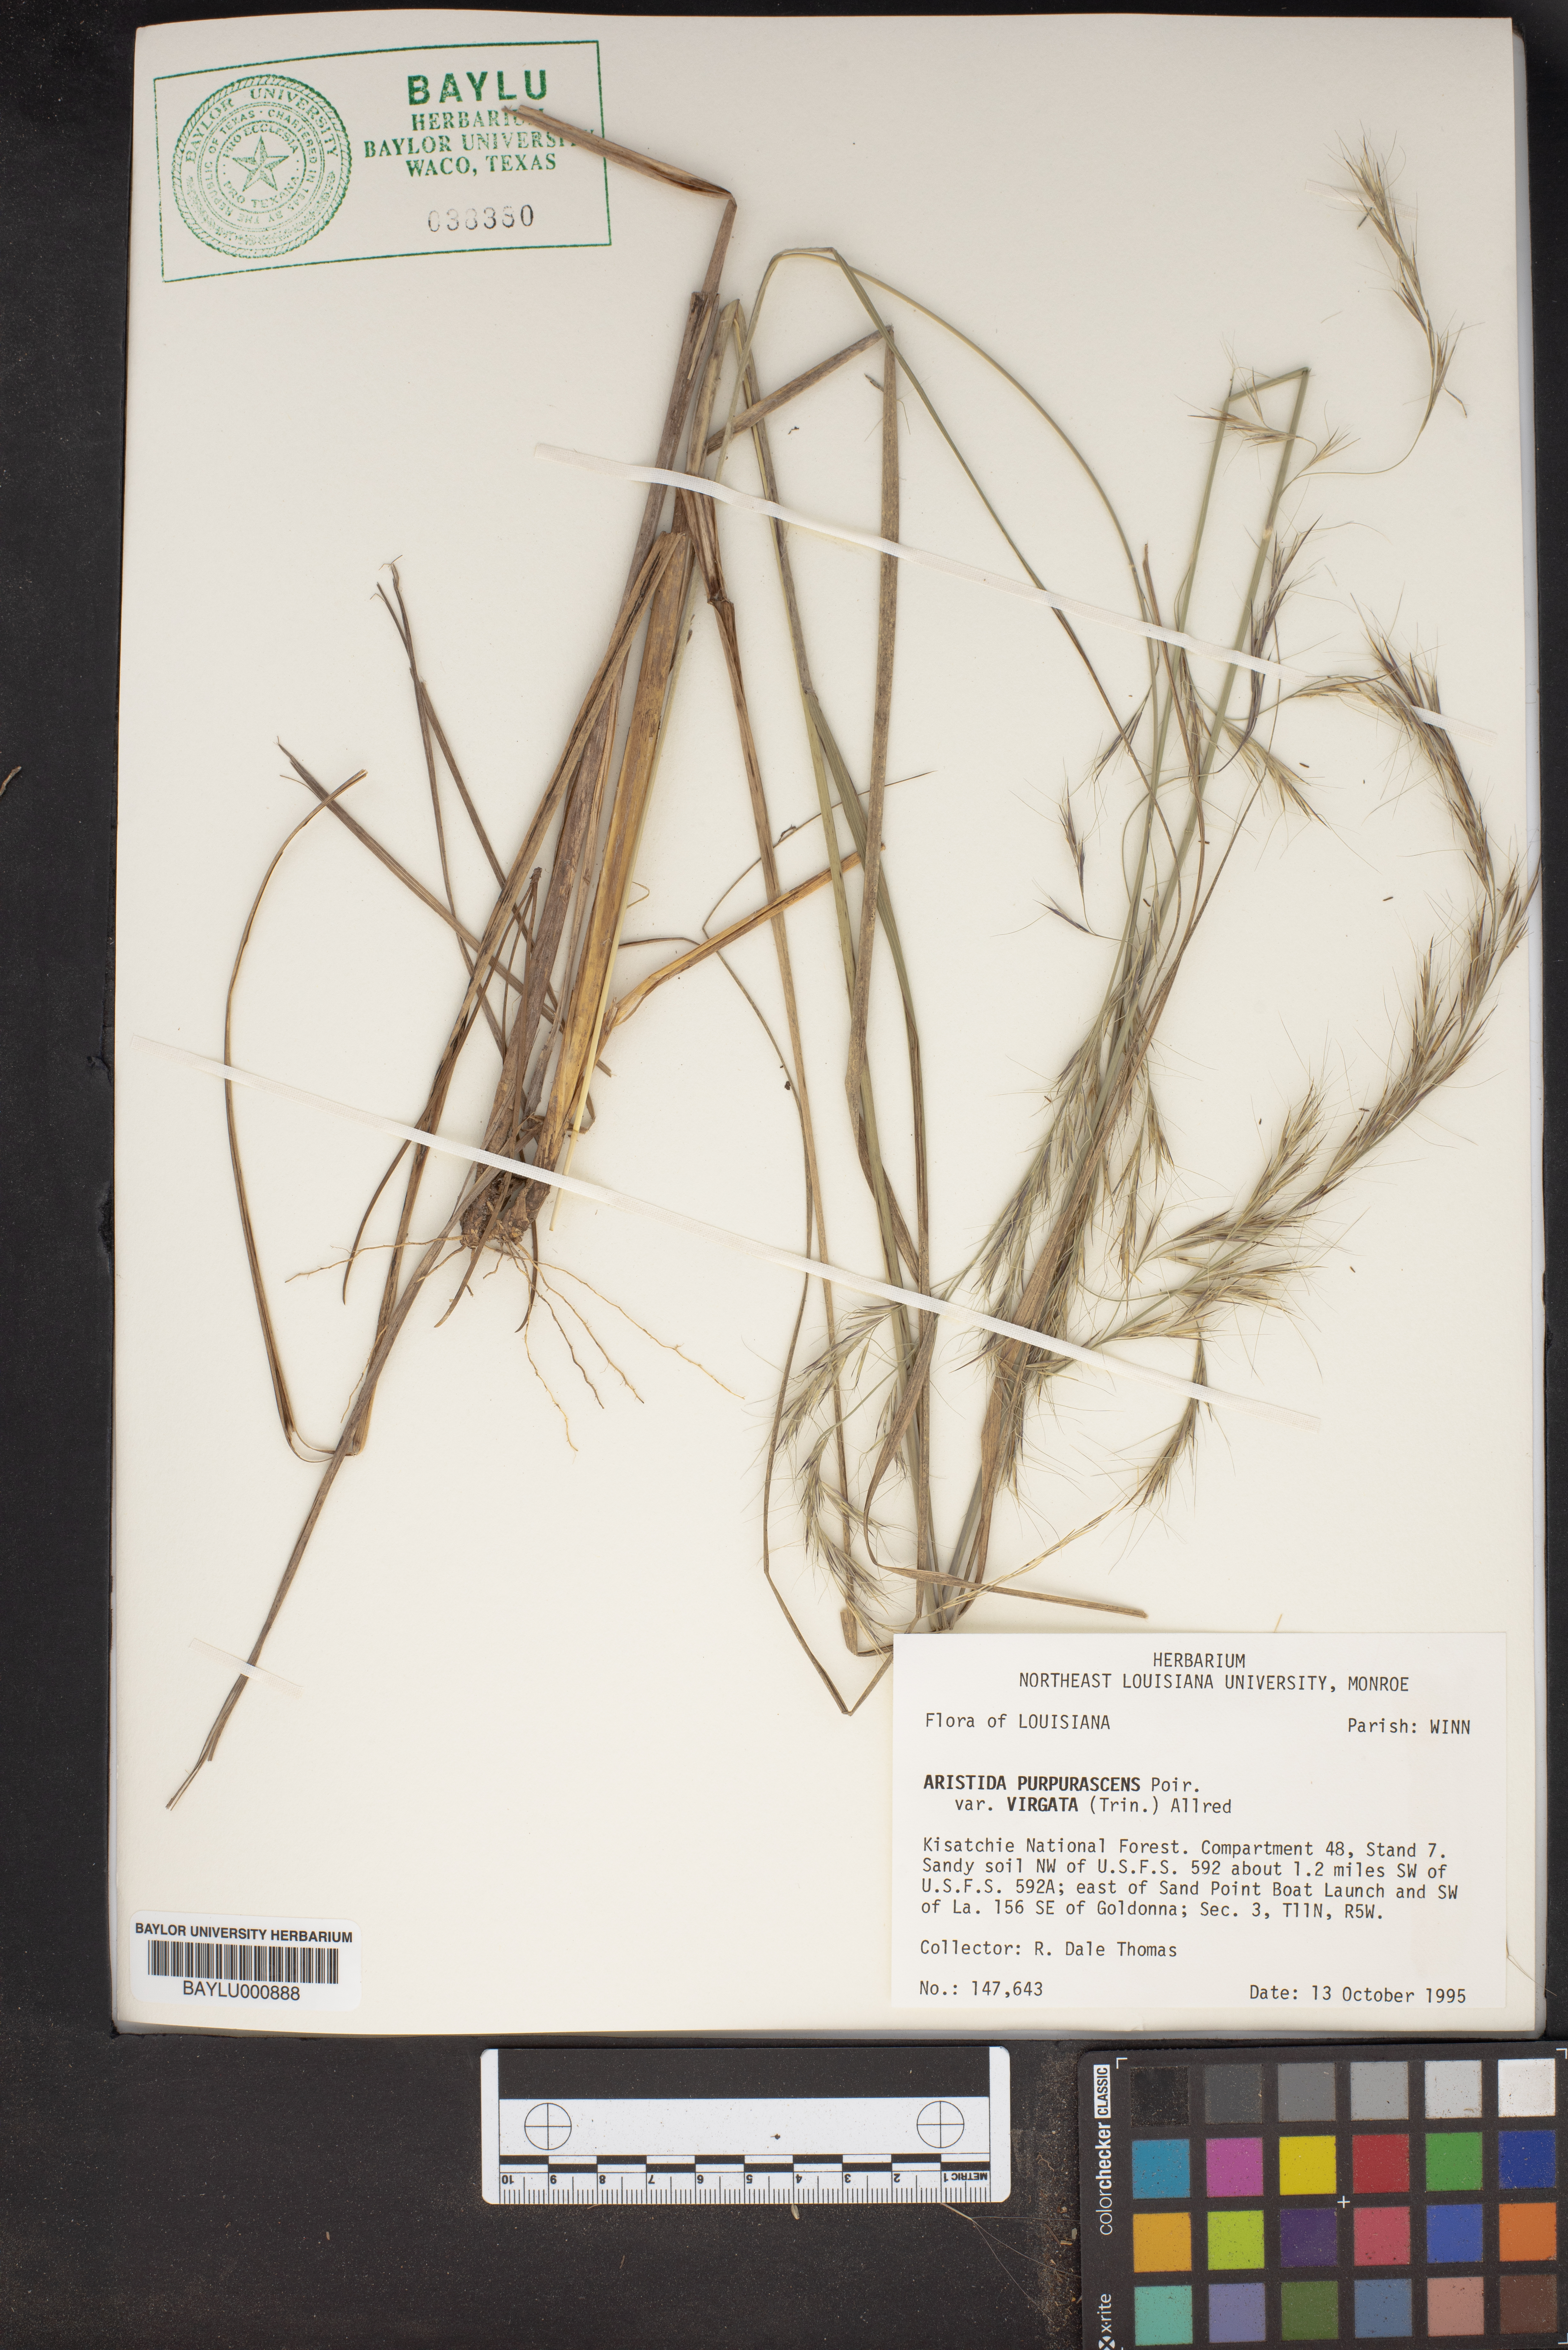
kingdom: Plantae
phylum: Tracheophyta
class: Liliopsida
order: Poales
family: Poaceae
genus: Aristida
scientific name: Aristida virgata
